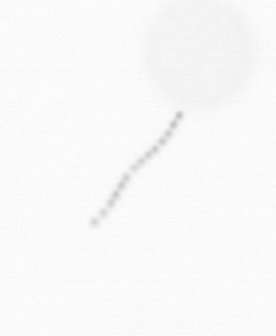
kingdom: Chromista
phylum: Ochrophyta
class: Bacillariophyceae
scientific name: Bacillariophyceae
